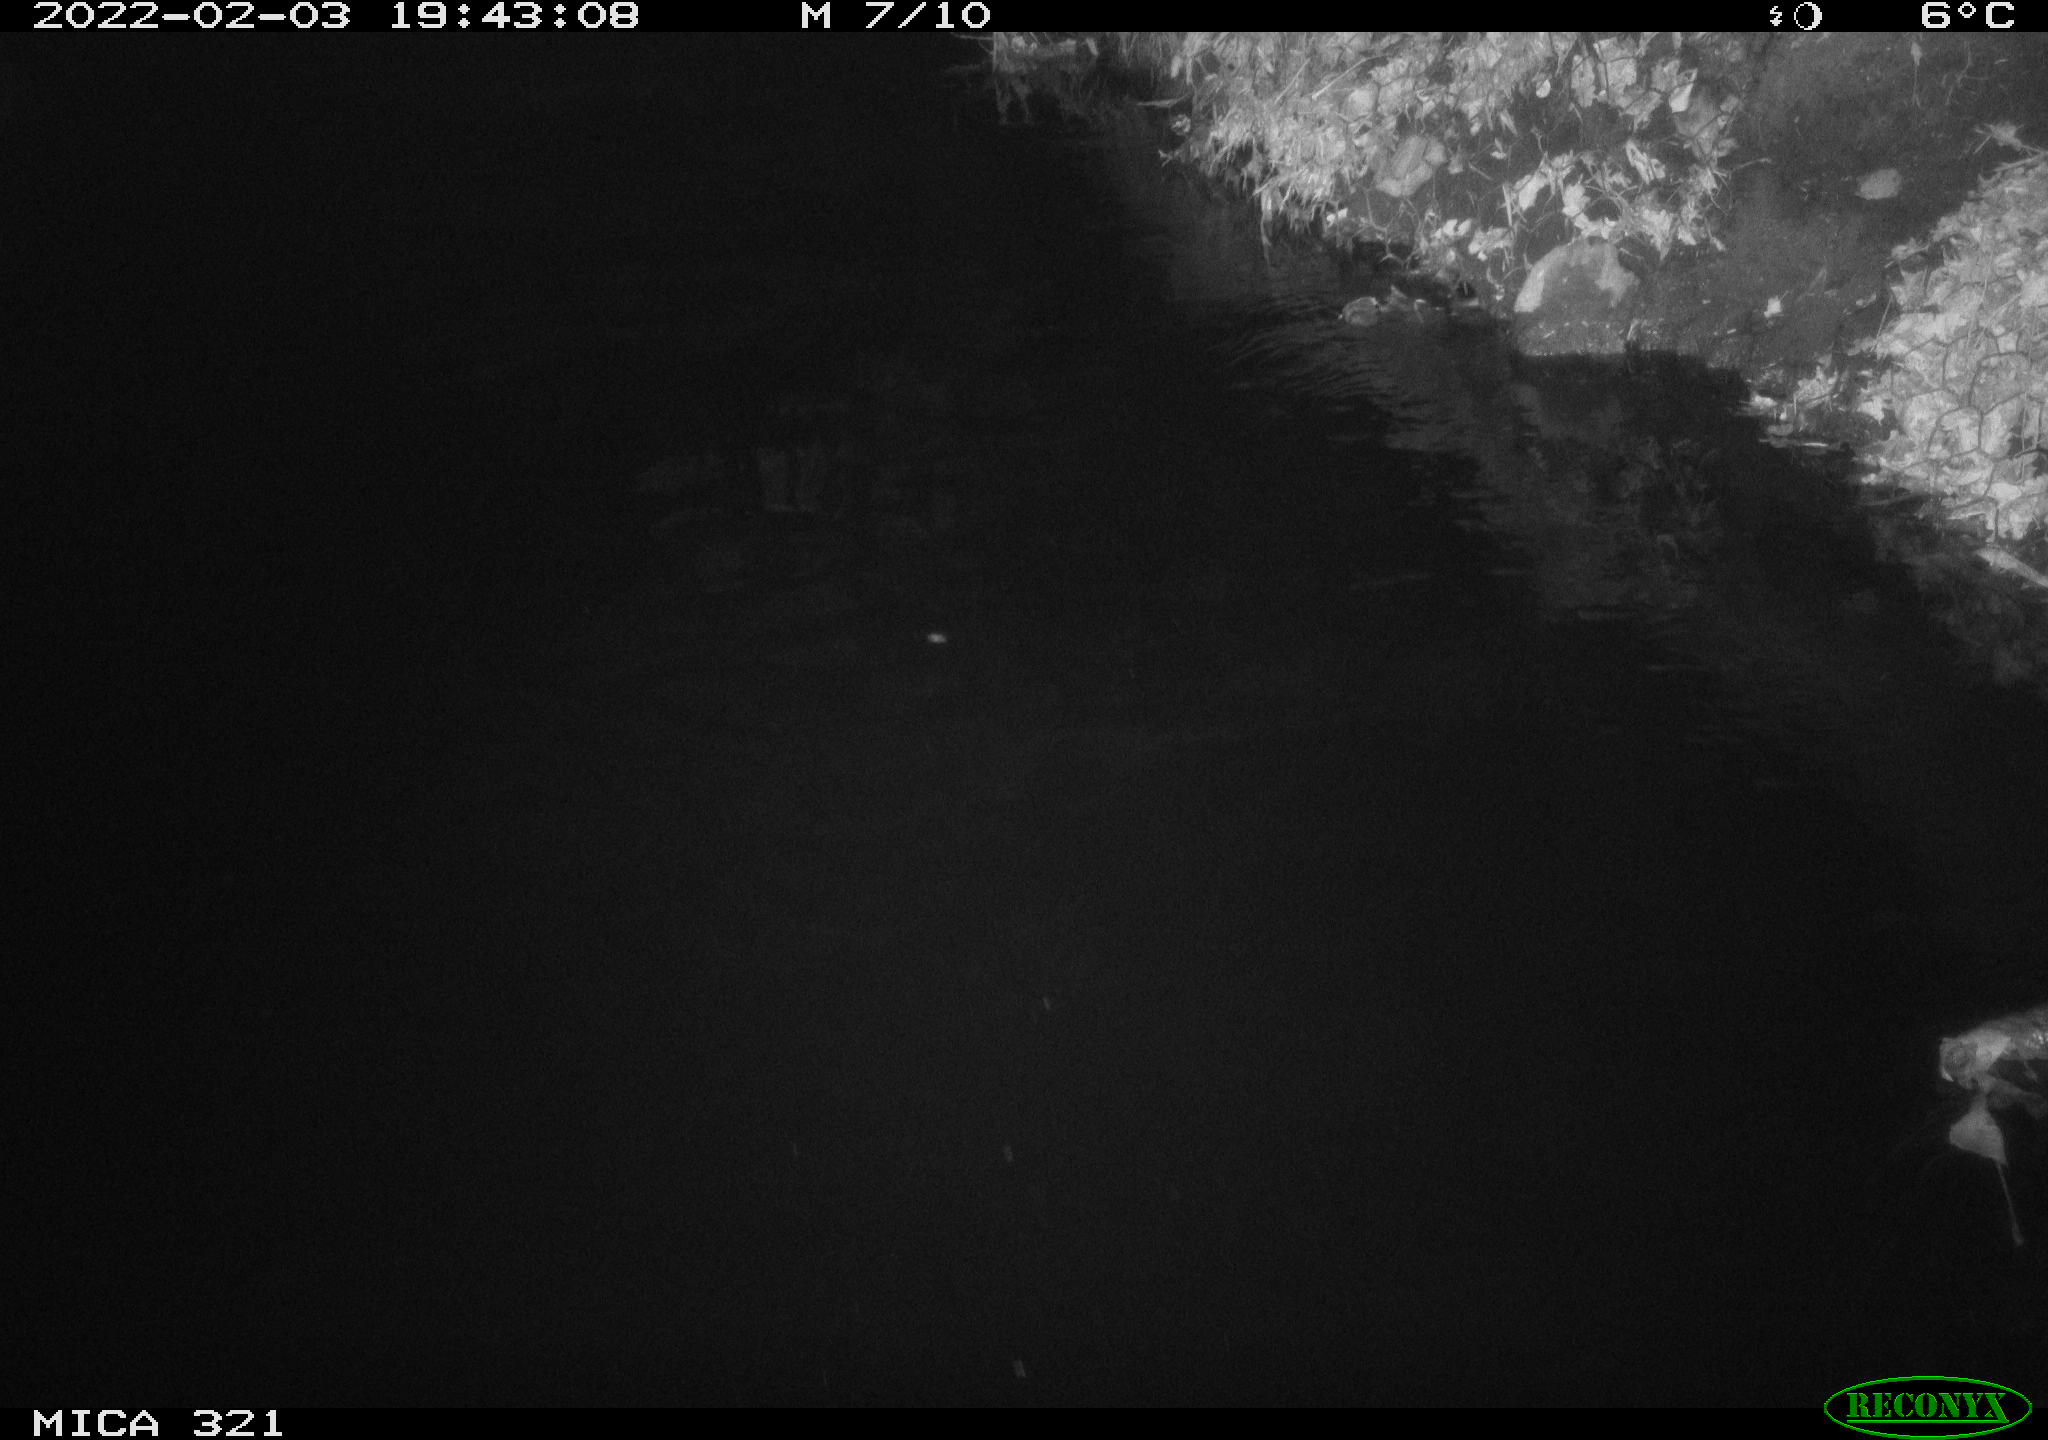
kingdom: Animalia
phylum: Chordata
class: Mammalia
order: Rodentia
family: Muridae
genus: Rattus
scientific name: Rattus norvegicus
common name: Brown rat
